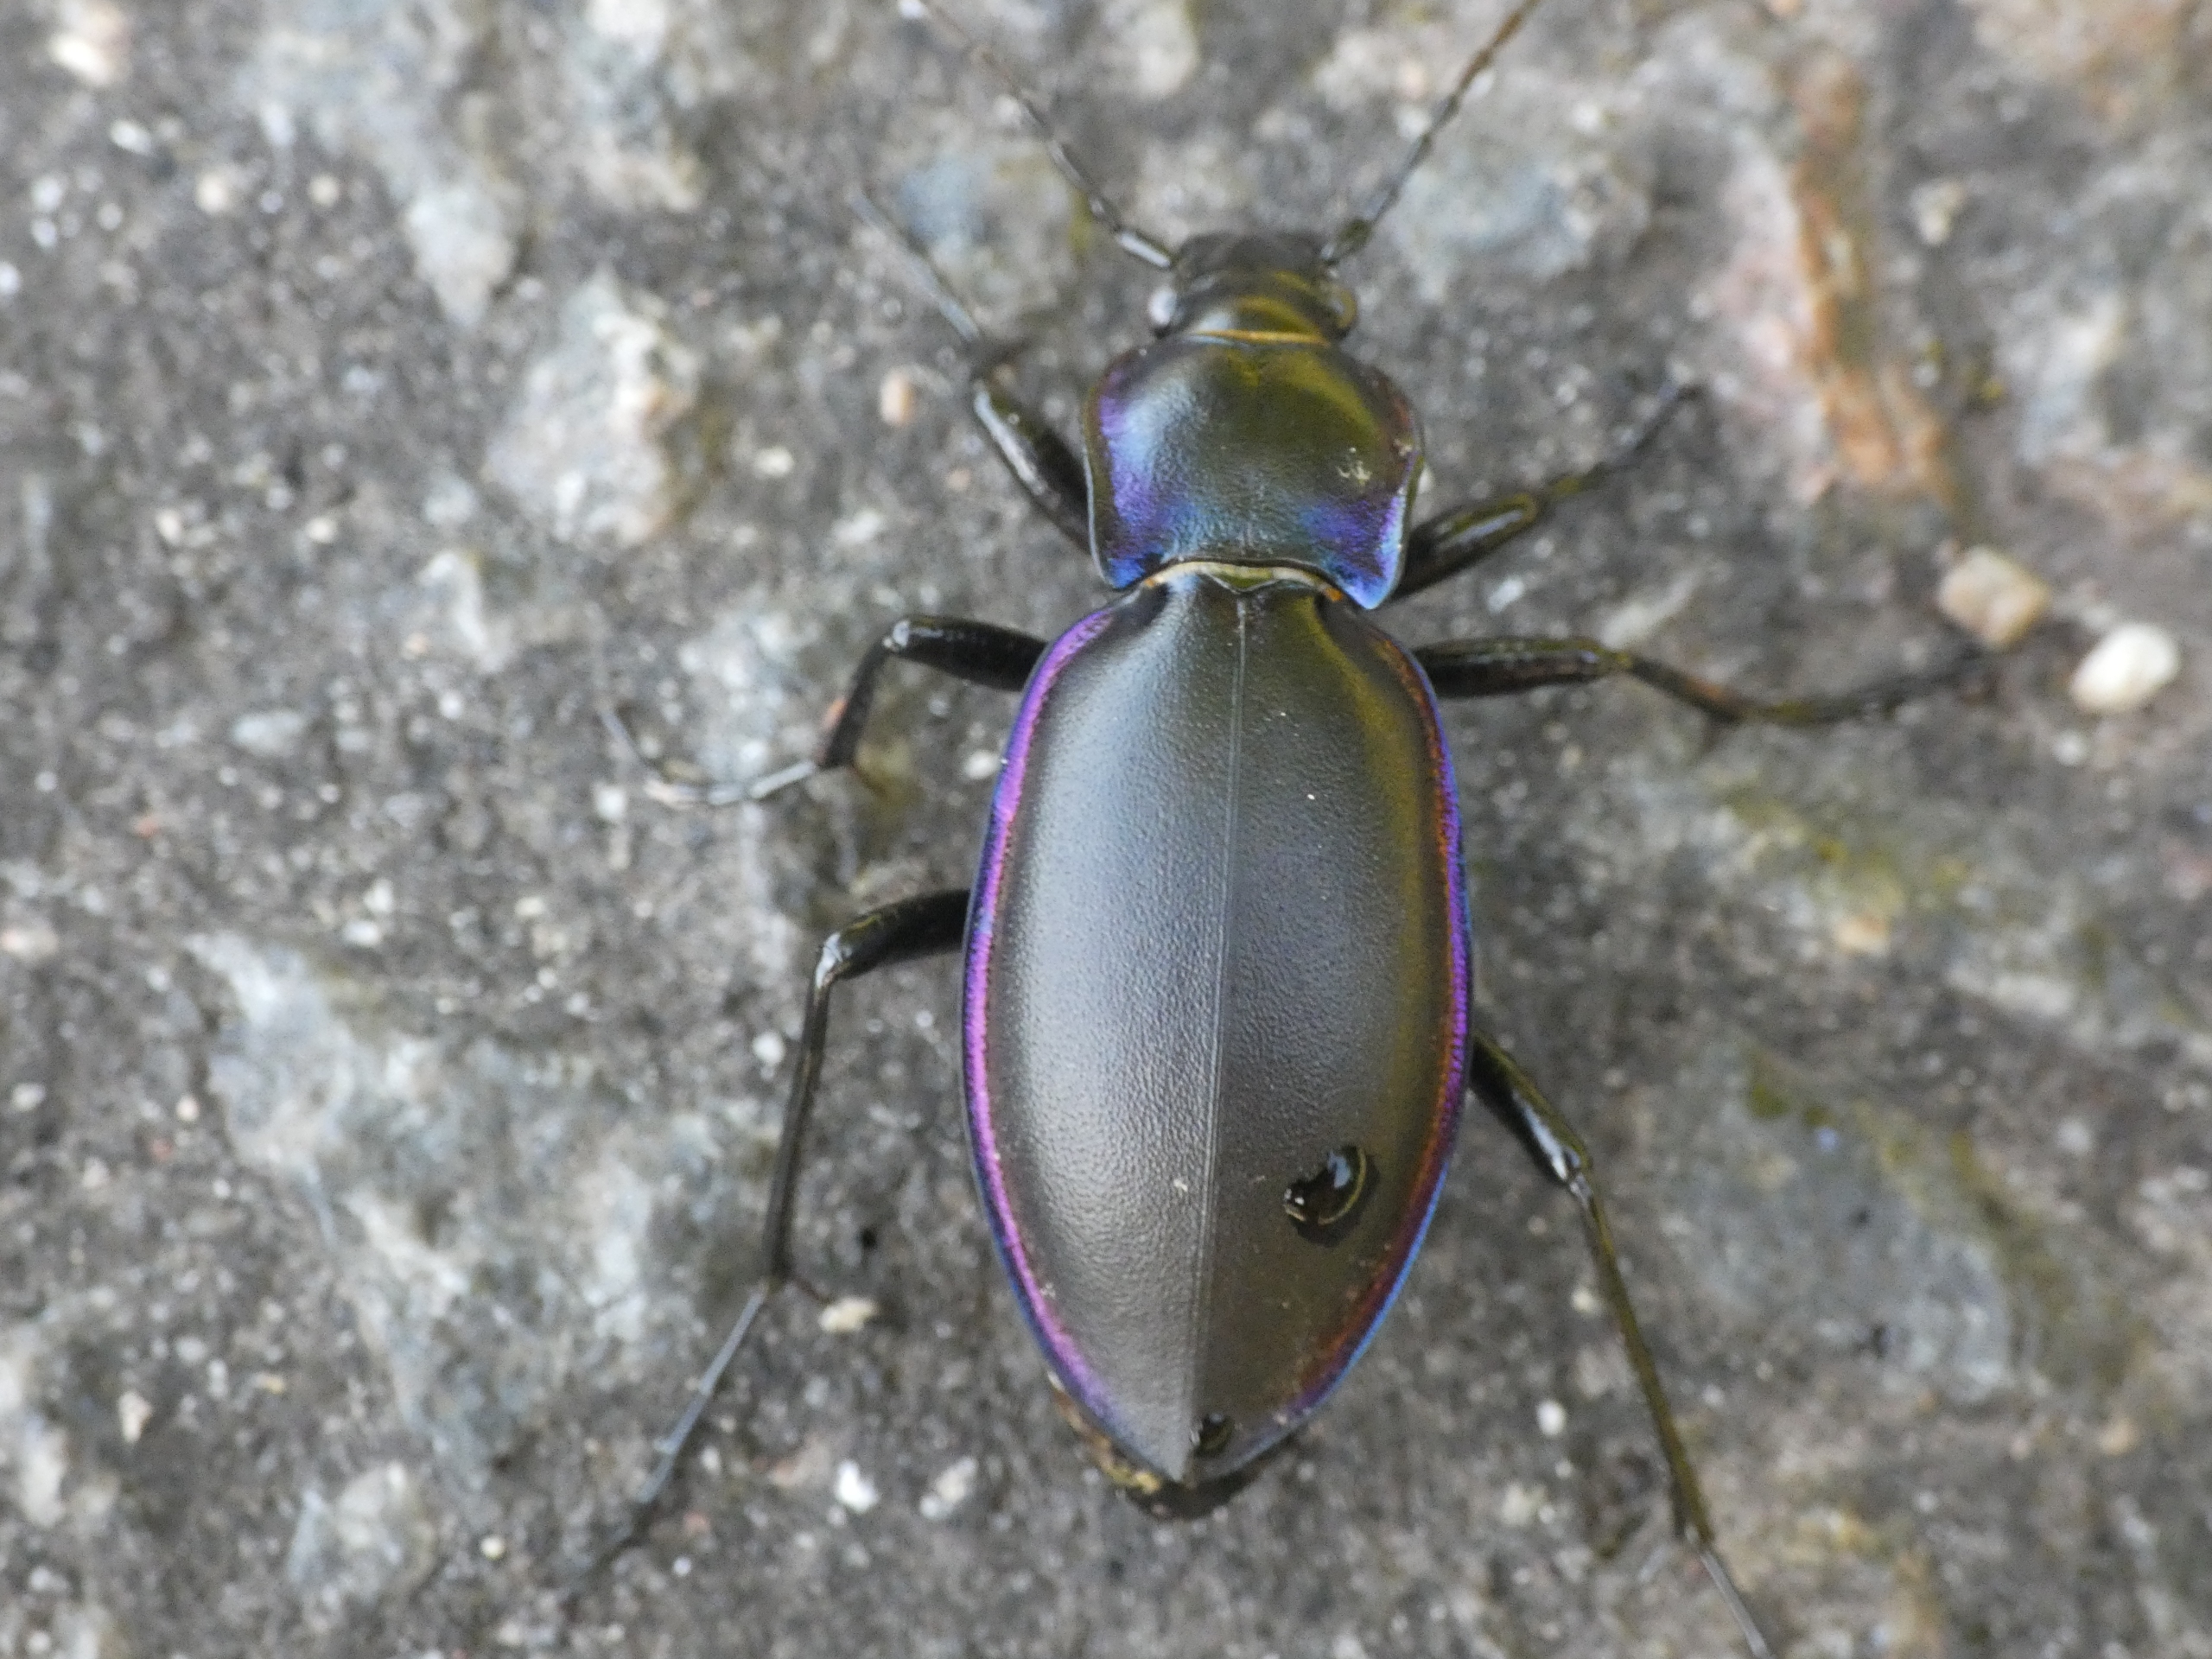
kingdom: Animalia
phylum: Arthropoda
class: Insecta
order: Coleoptera
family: Carabidae
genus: Carabus
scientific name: Carabus violaceus
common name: Violetrandet løber
